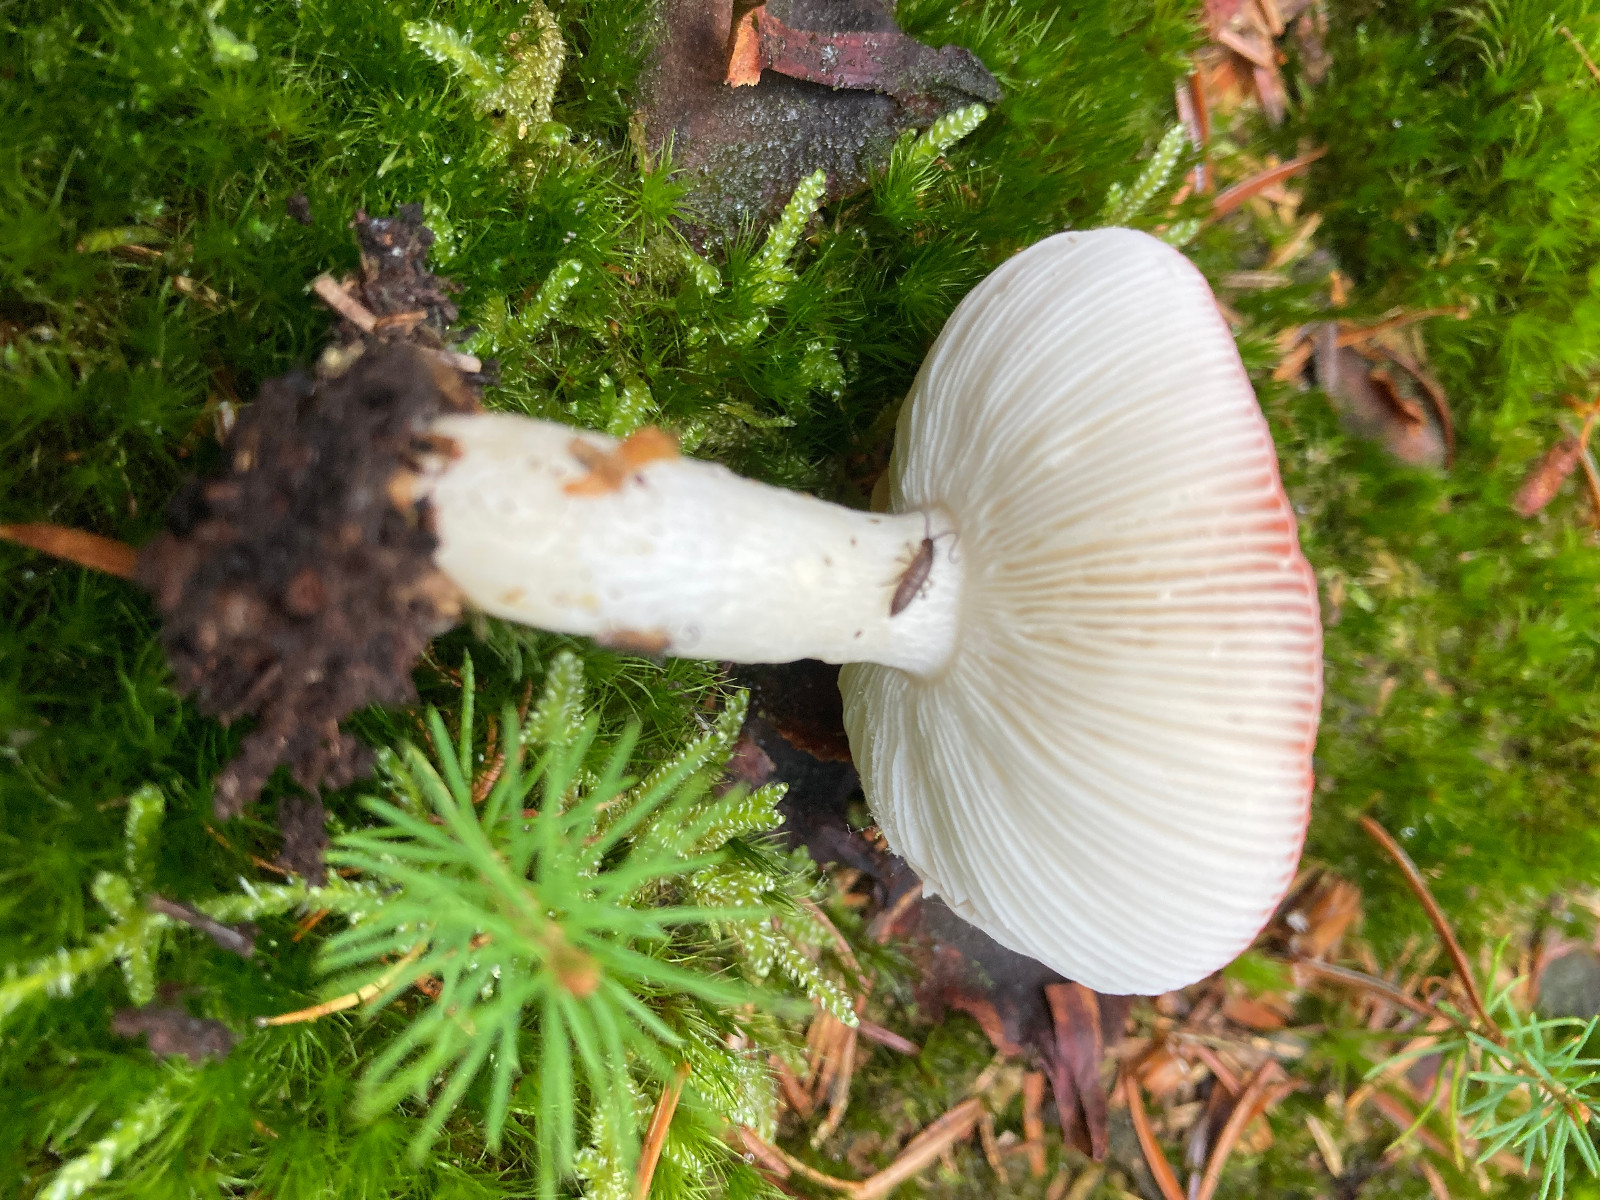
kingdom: Fungi
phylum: Basidiomycota
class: Agaricomycetes
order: Russulales
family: Russulaceae
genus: Russula
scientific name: Russula emetica
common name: stor gift-skørhat
